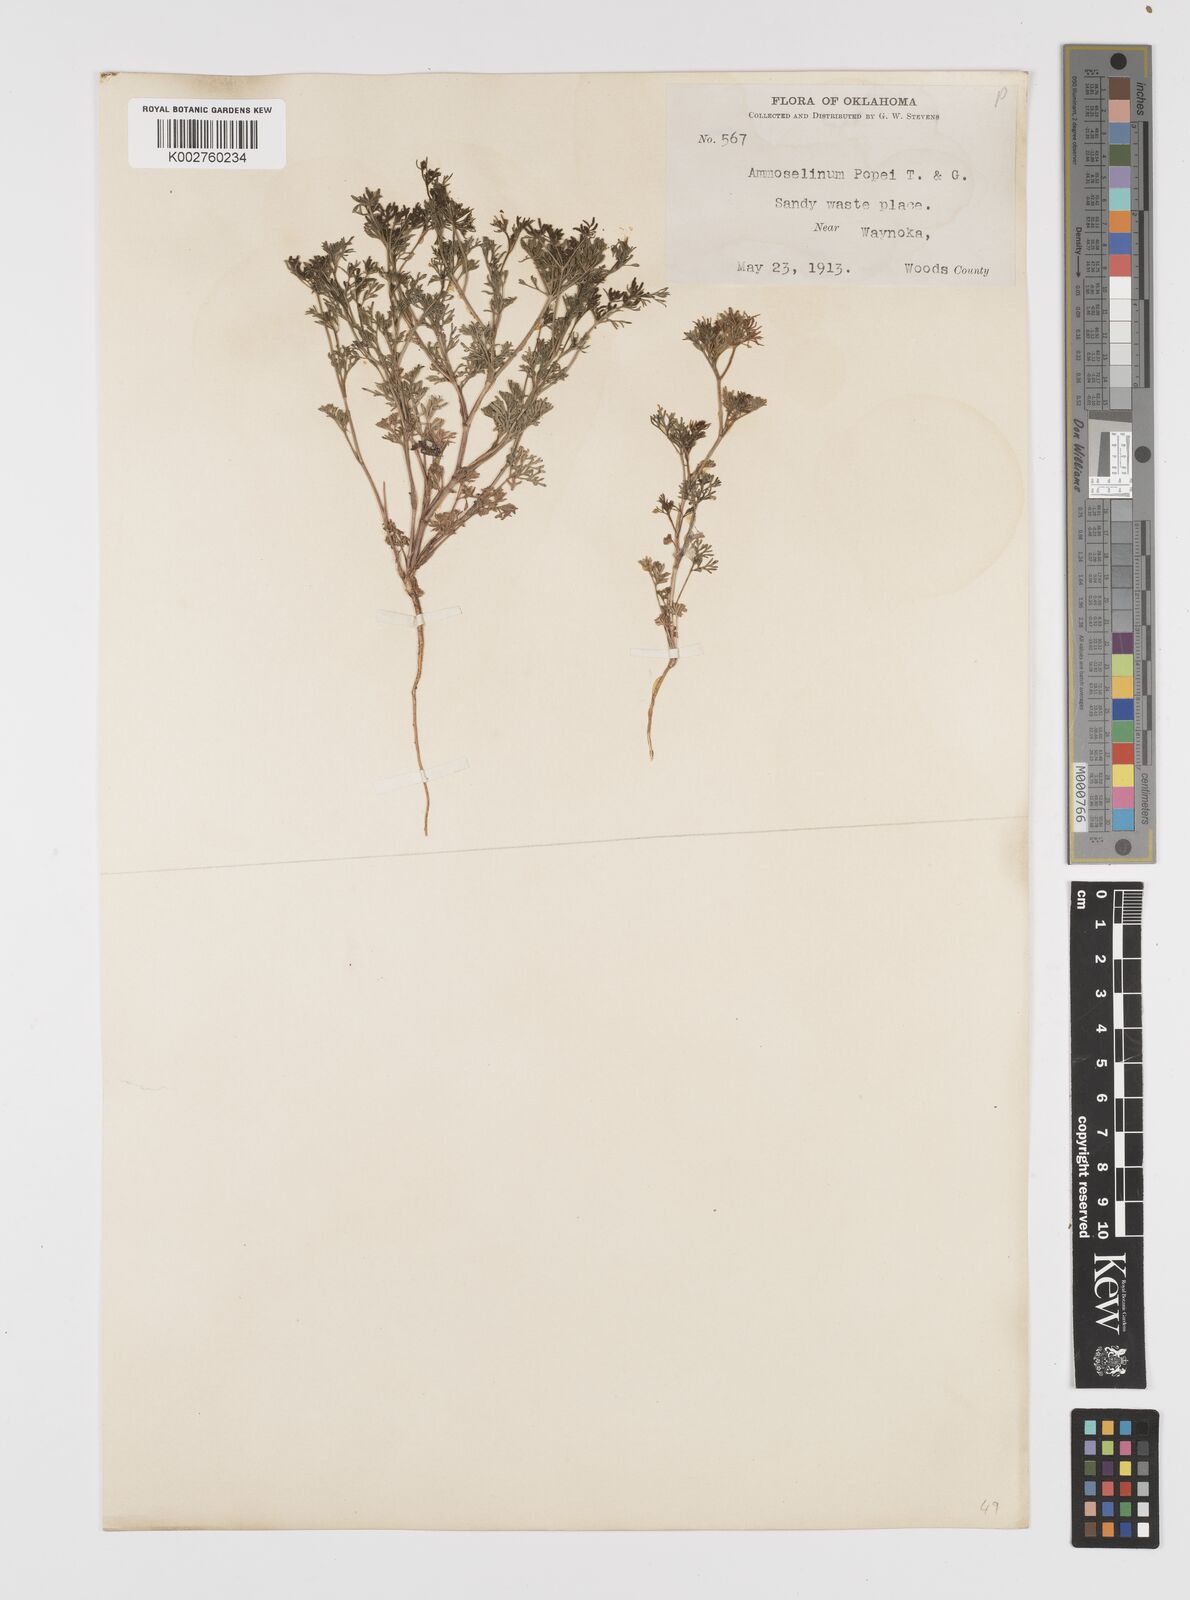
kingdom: Plantae
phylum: Tracheophyta
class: Magnoliopsida
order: Apiales
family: Apiaceae
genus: Ammoselinum
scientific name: Ammoselinum popei
